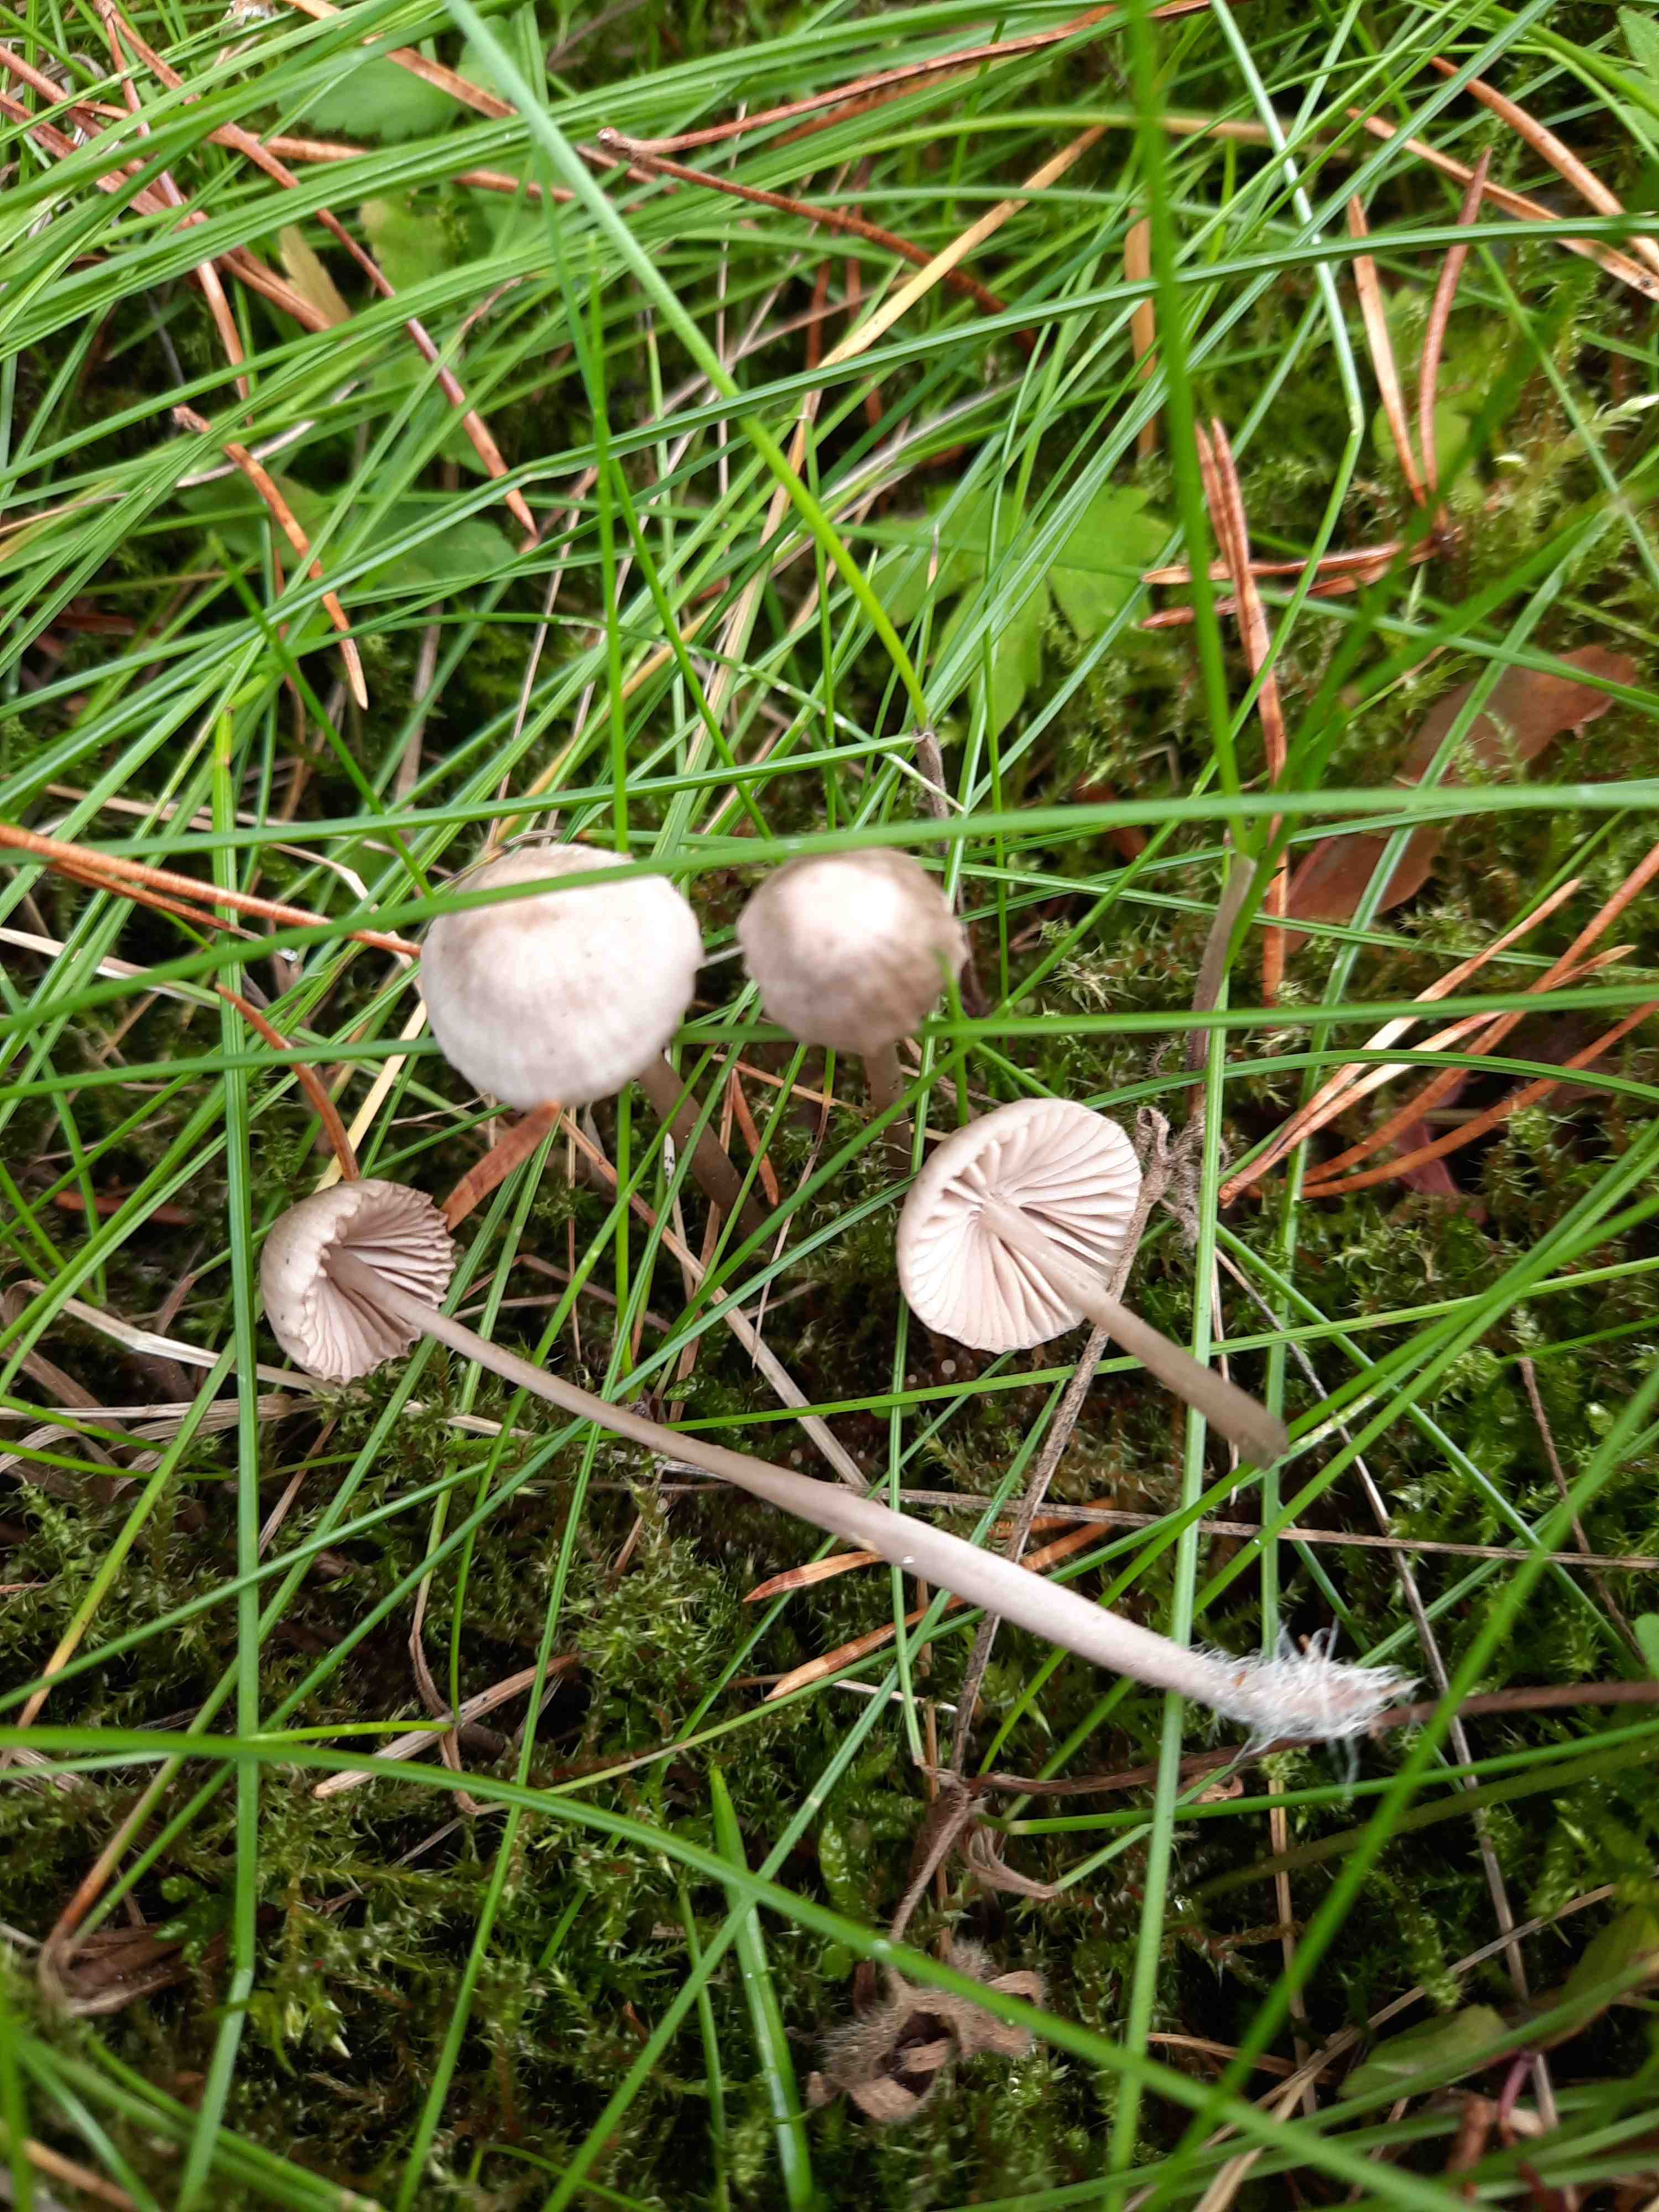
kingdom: Fungi
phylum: Basidiomycota
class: Agaricomycetes
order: Agaricales
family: Mycenaceae
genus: Mycena
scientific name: Mycena leptocephala
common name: klor-huesvamp
